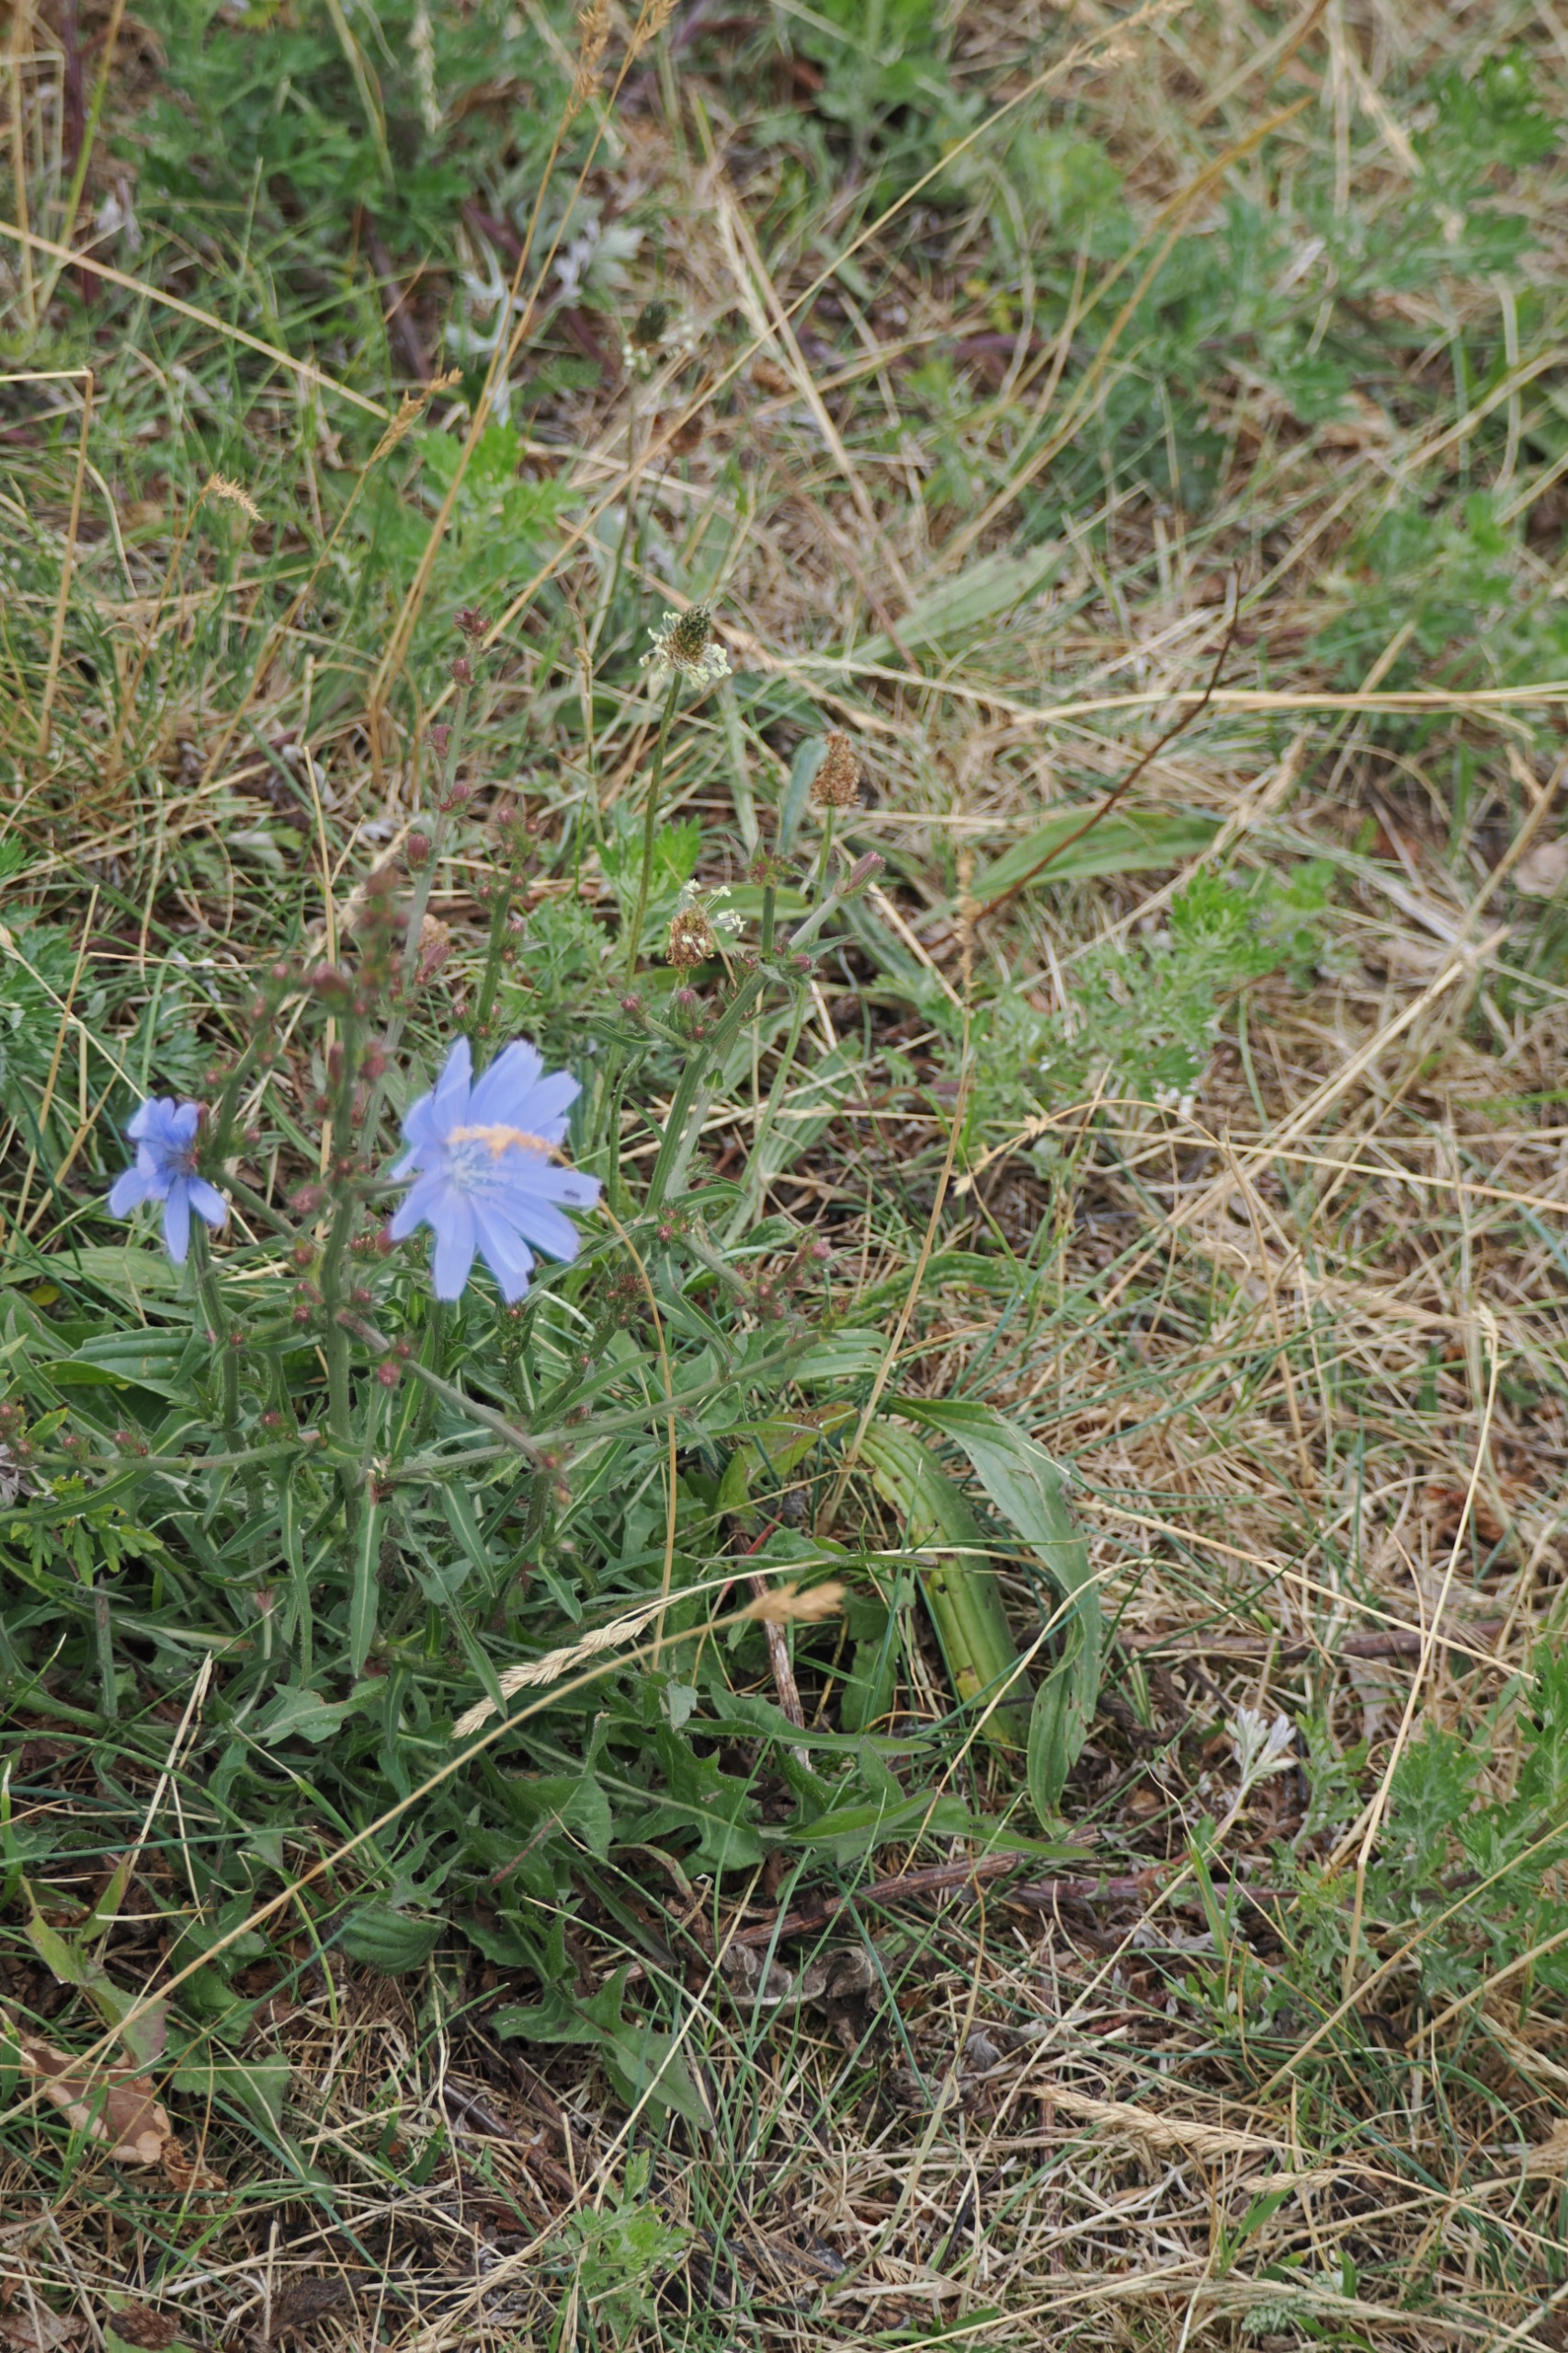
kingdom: Plantae
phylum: Tracheophyta
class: Magnoliopsida
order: Asterales
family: Asteraceae
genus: Cichorium
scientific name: Cichorium intybus
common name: Cikorie
